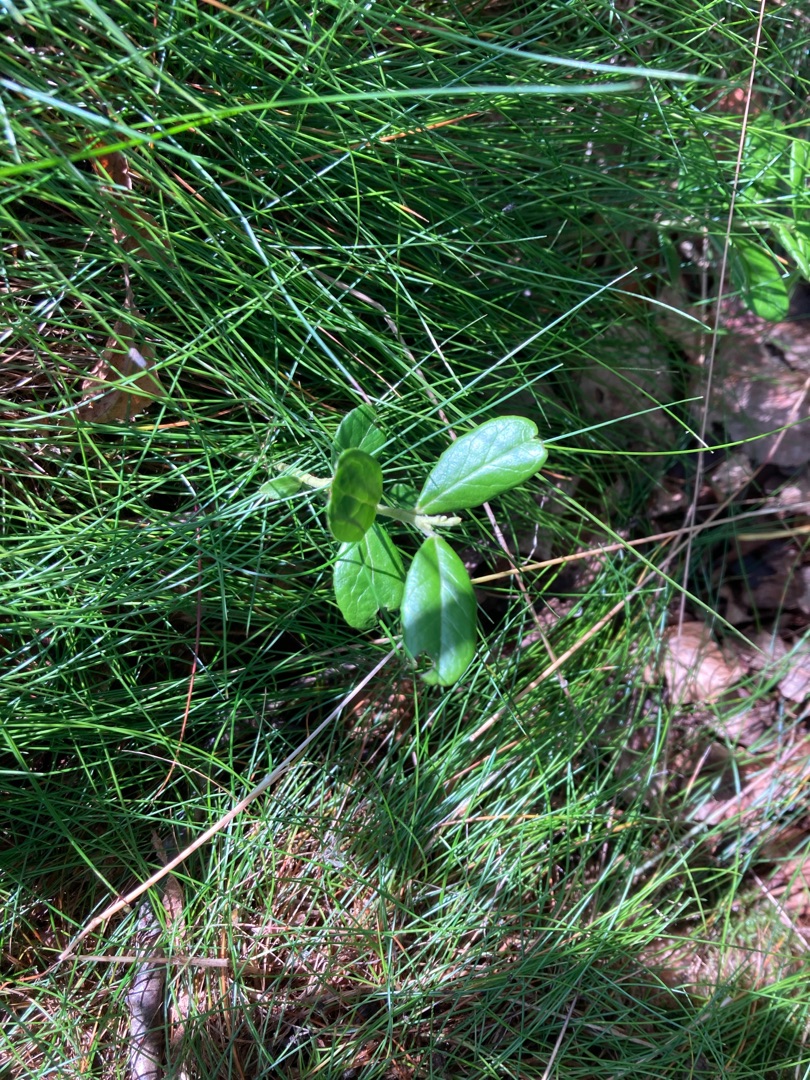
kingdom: Plantae
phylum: Tracheophyta
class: Magnoliopsida
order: Ericales
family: Ericaceae
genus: Vaccinium
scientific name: Vaccinium vitis-idaea
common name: Tyttebær
